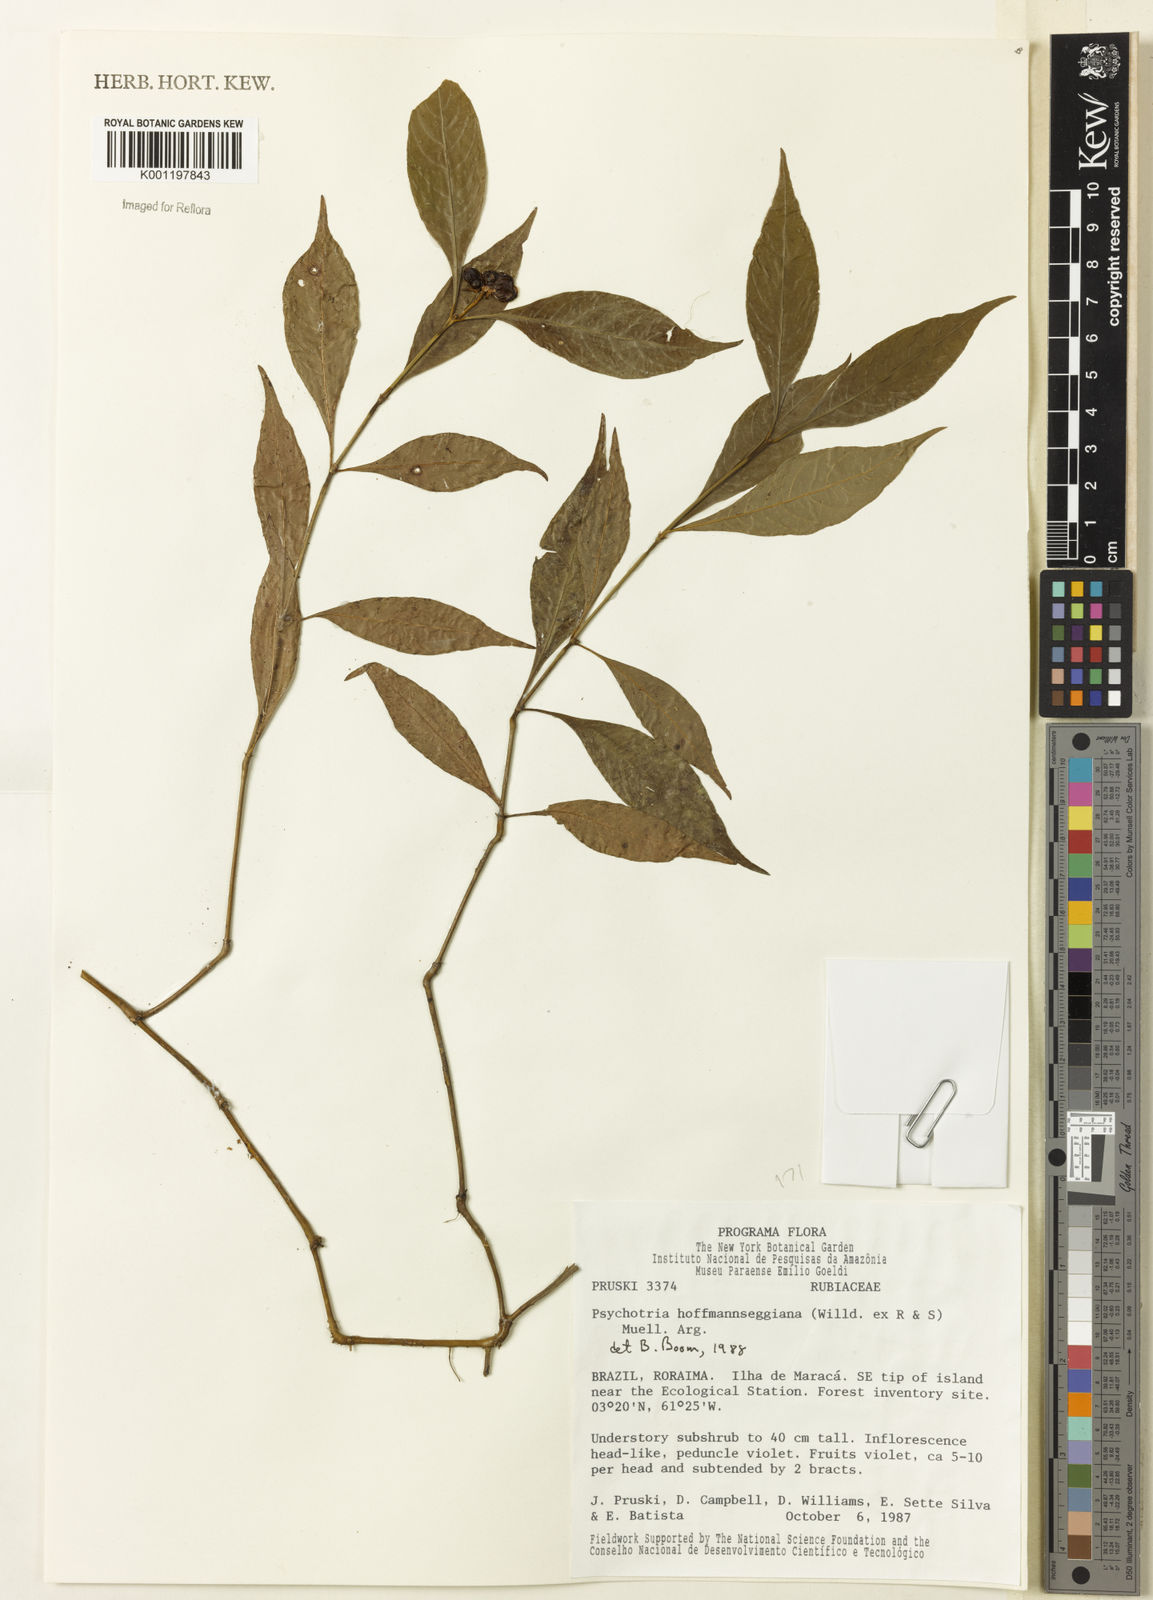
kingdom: Plantae
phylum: Tracheophyta
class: Magnoliopsida
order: Gentianales
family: Rubiaceae
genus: Psychotria
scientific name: Psychotria
